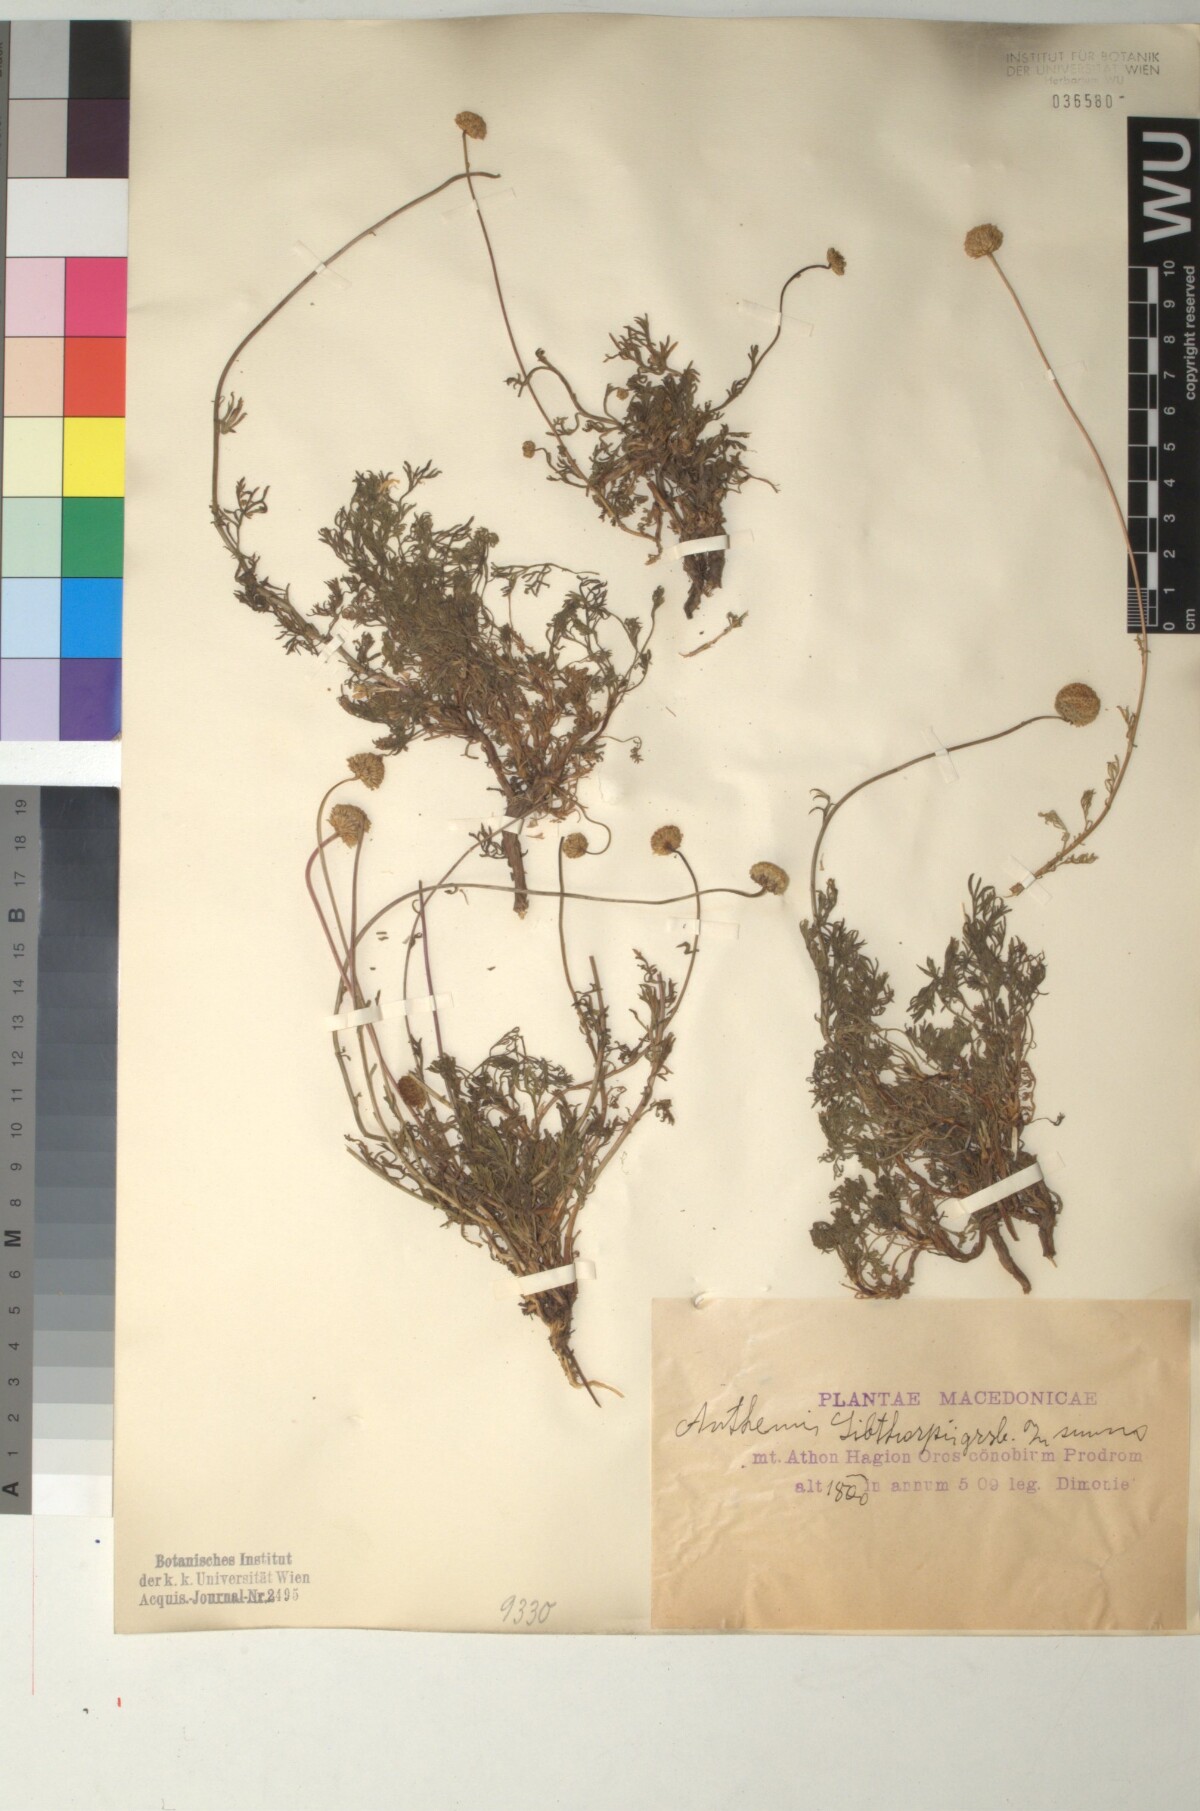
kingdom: Plantae
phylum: Tracheophyta
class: Magnoliopsida
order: Asterales
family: Asteraceae
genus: Anthemis
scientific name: Anthemis sibthorpii
